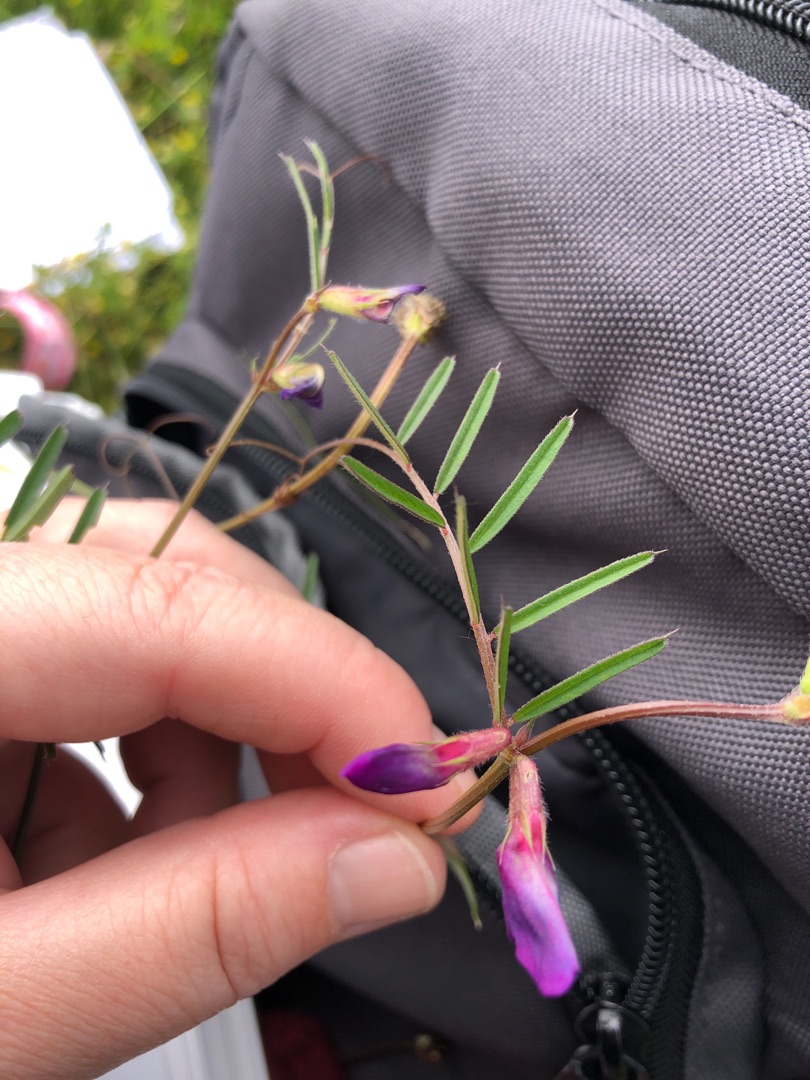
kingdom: Plantae
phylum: Tracheophyta
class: Magnoliopsida
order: Fabales
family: Fabaceae
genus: Vicia
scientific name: Vicia sativa
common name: Smalbladet vikke
